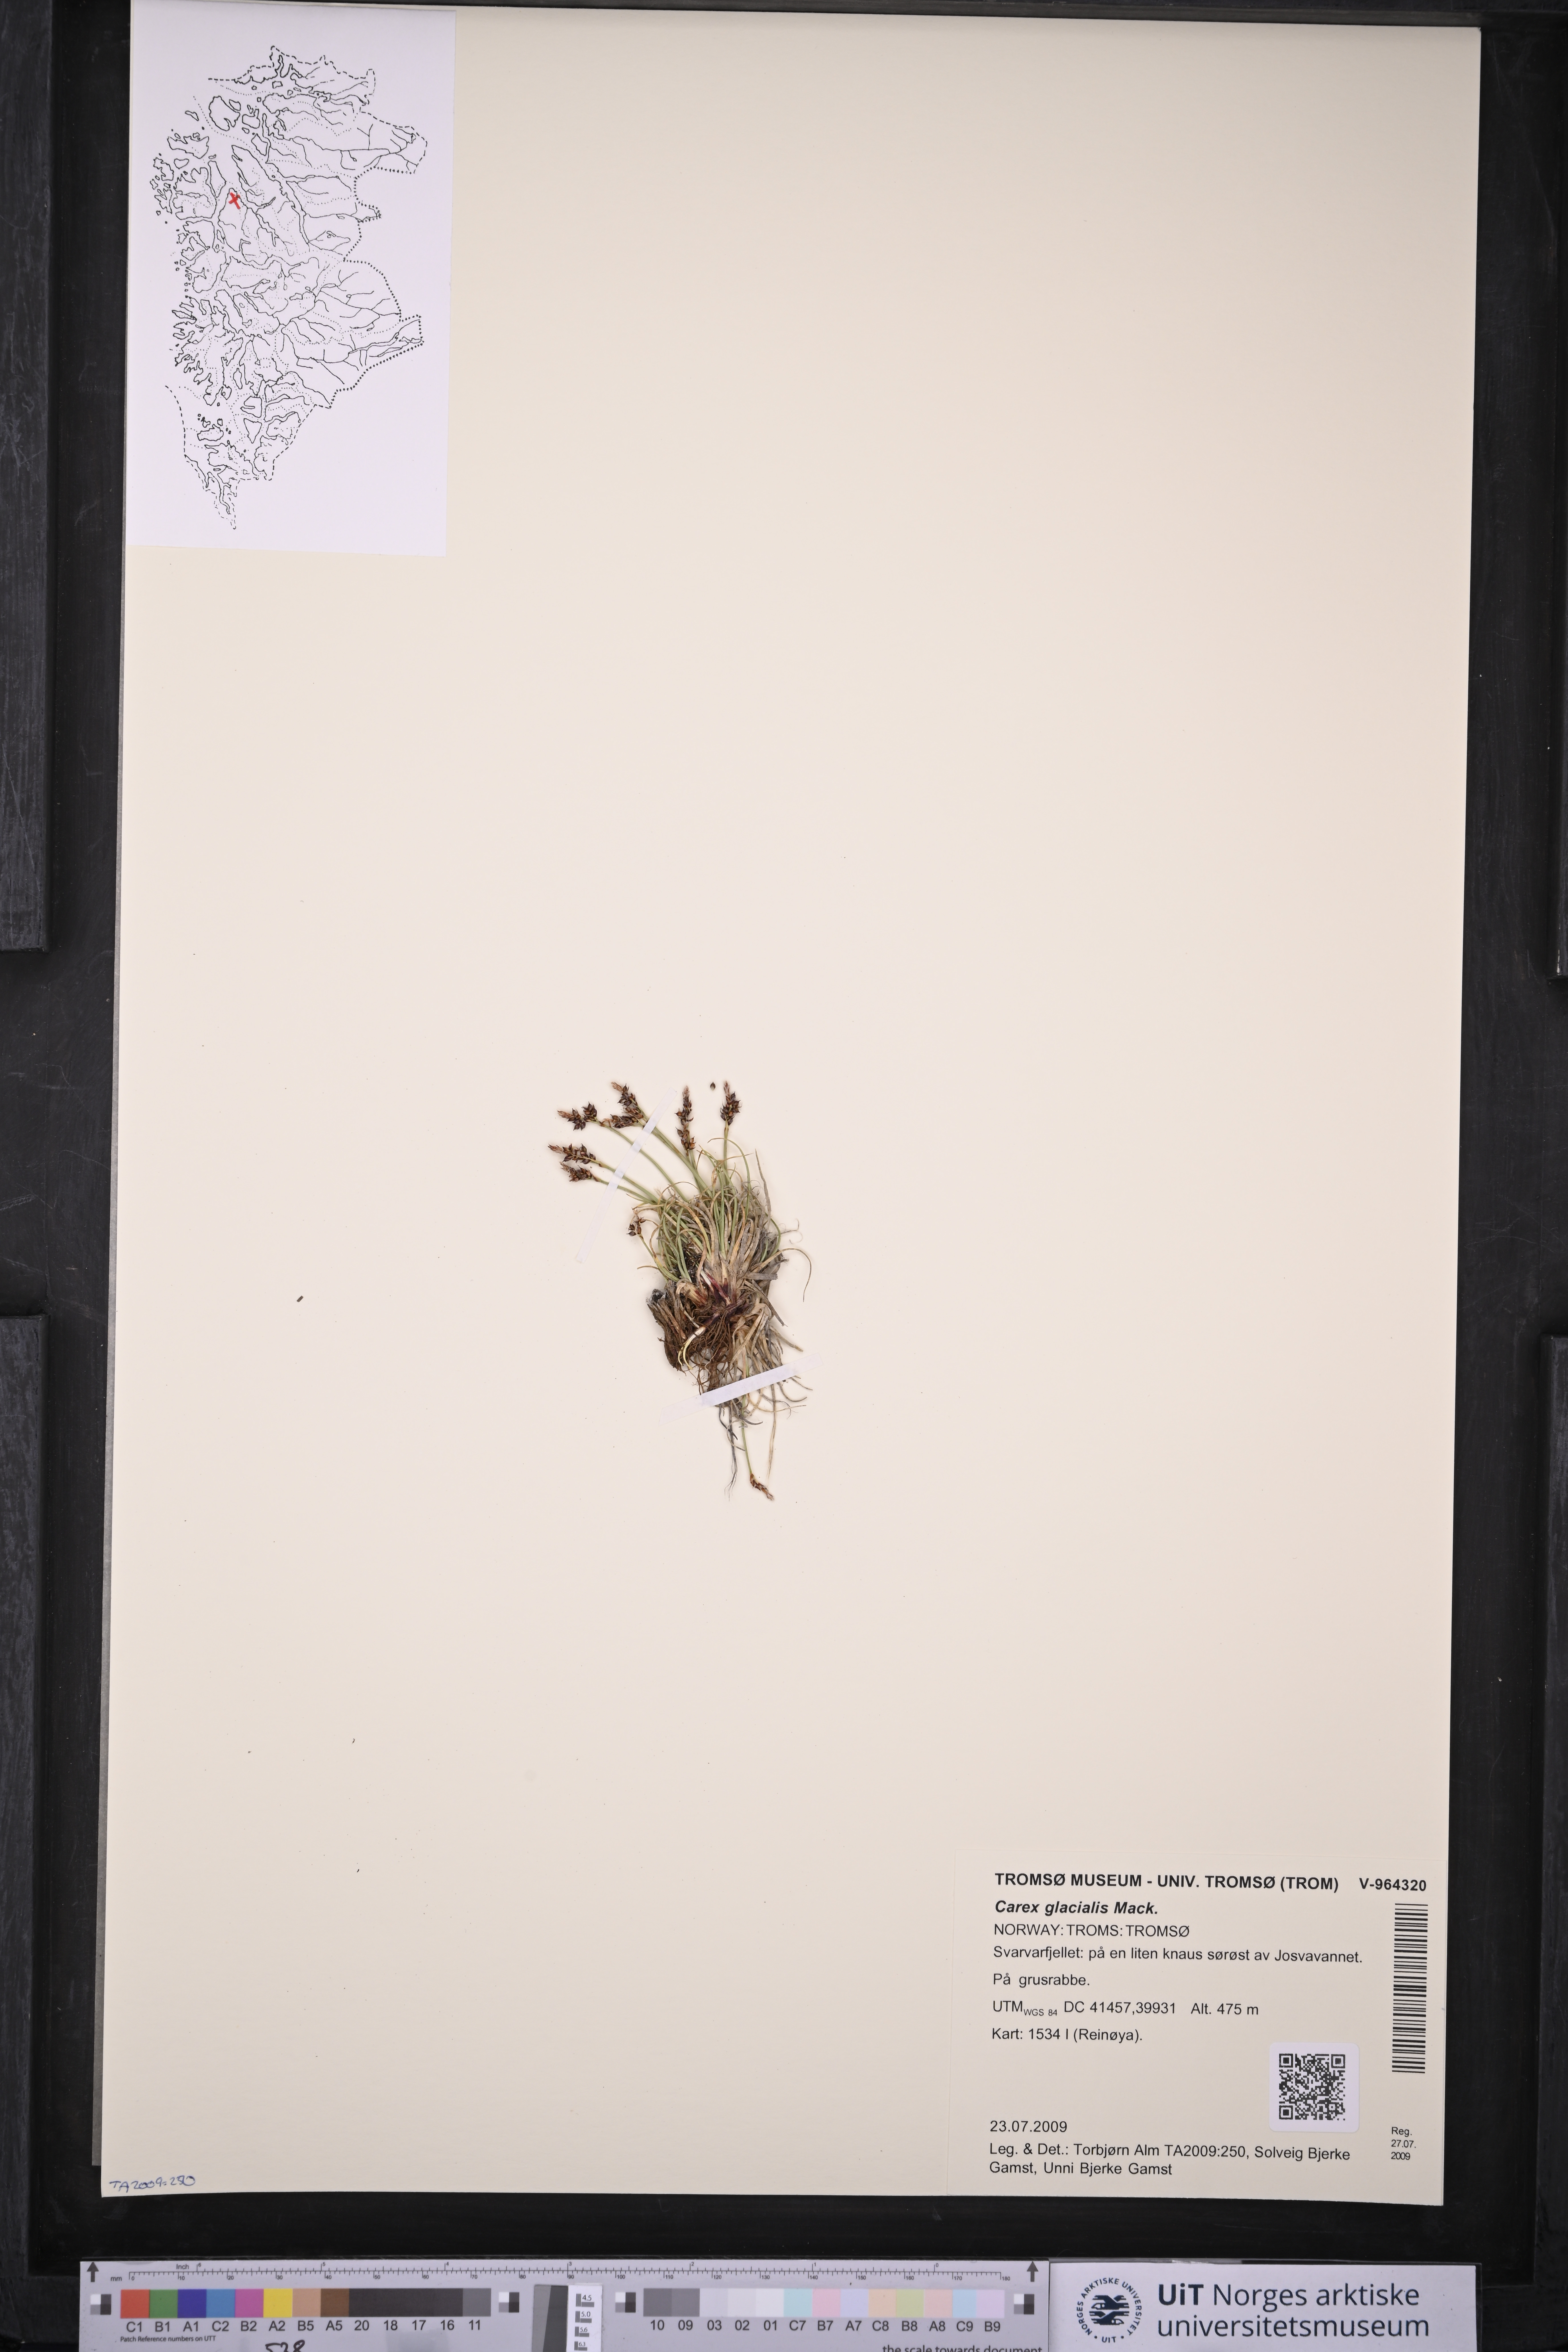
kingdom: Plantae
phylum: Tracheophyta
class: Liliopsida
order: Poales
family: Cyperaceae
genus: Carex
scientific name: Carex glacialis
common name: Newfoundland sedge
